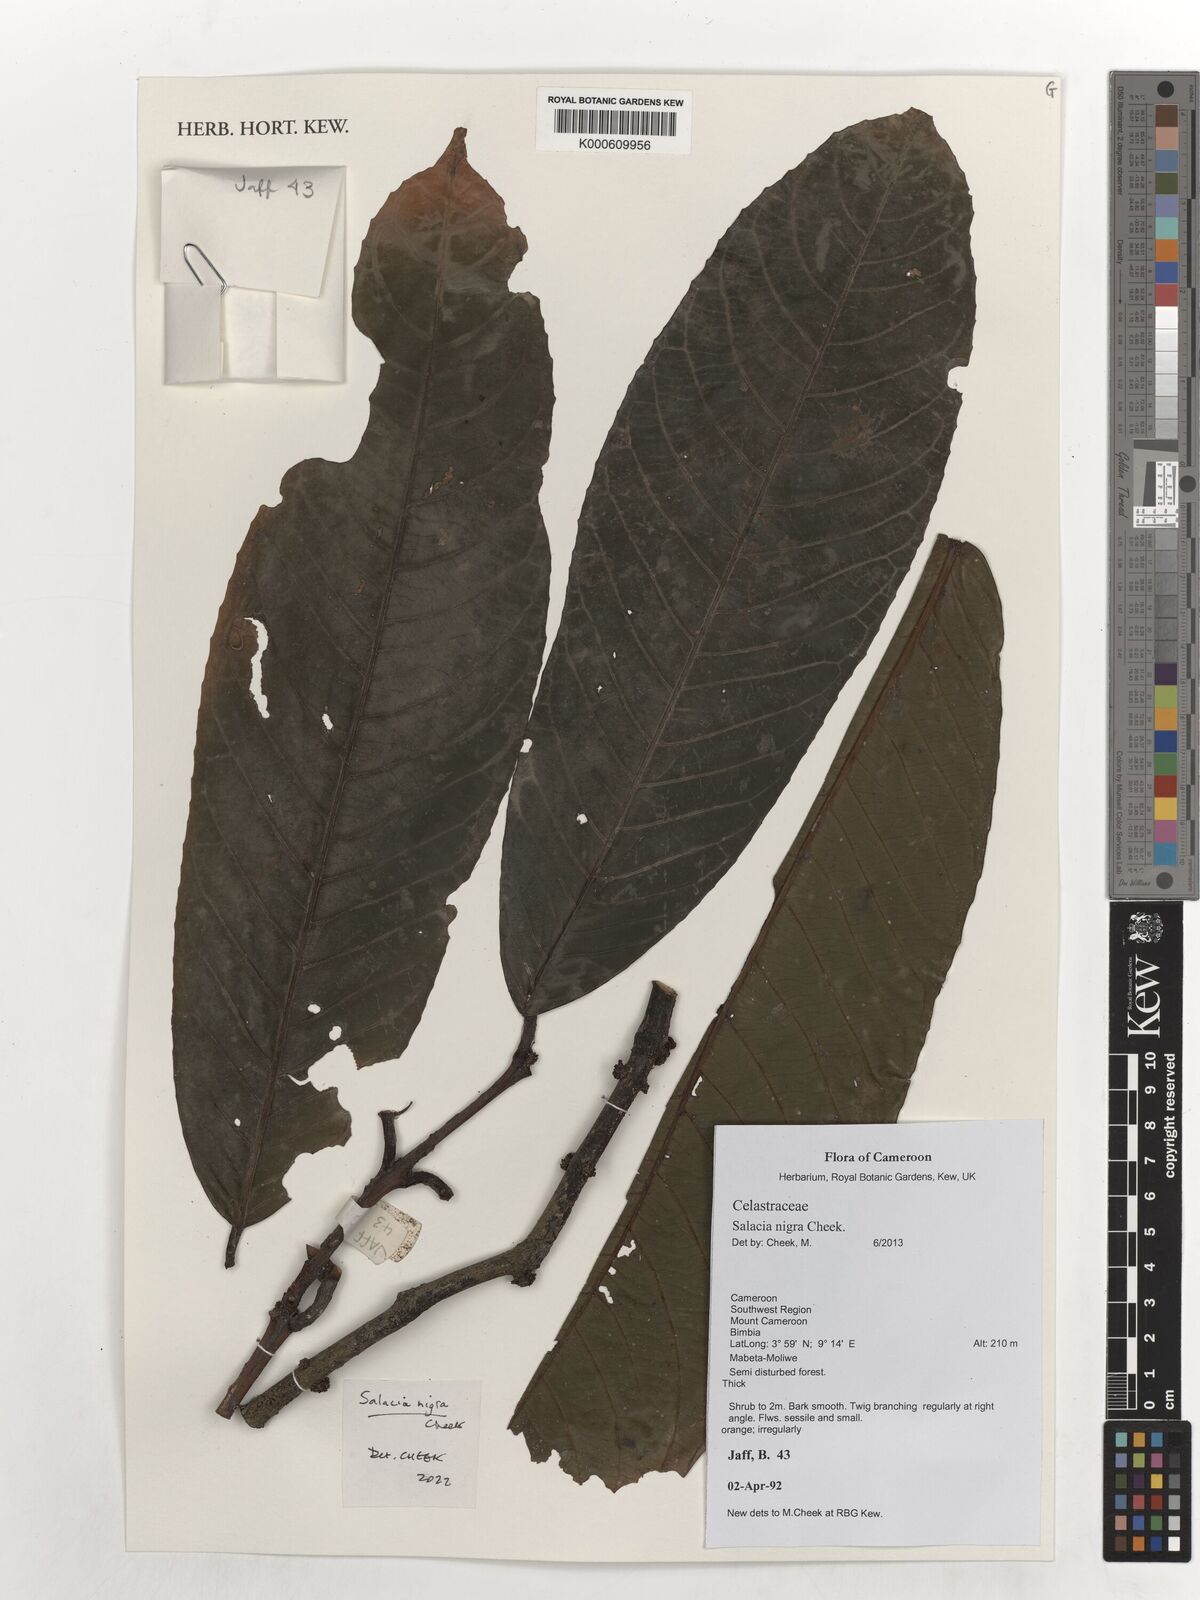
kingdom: Plantae
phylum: Tracheophyta
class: Magnoliopsida
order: Celastrales
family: Celastraceae
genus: Salacia
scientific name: Salacia nigra
